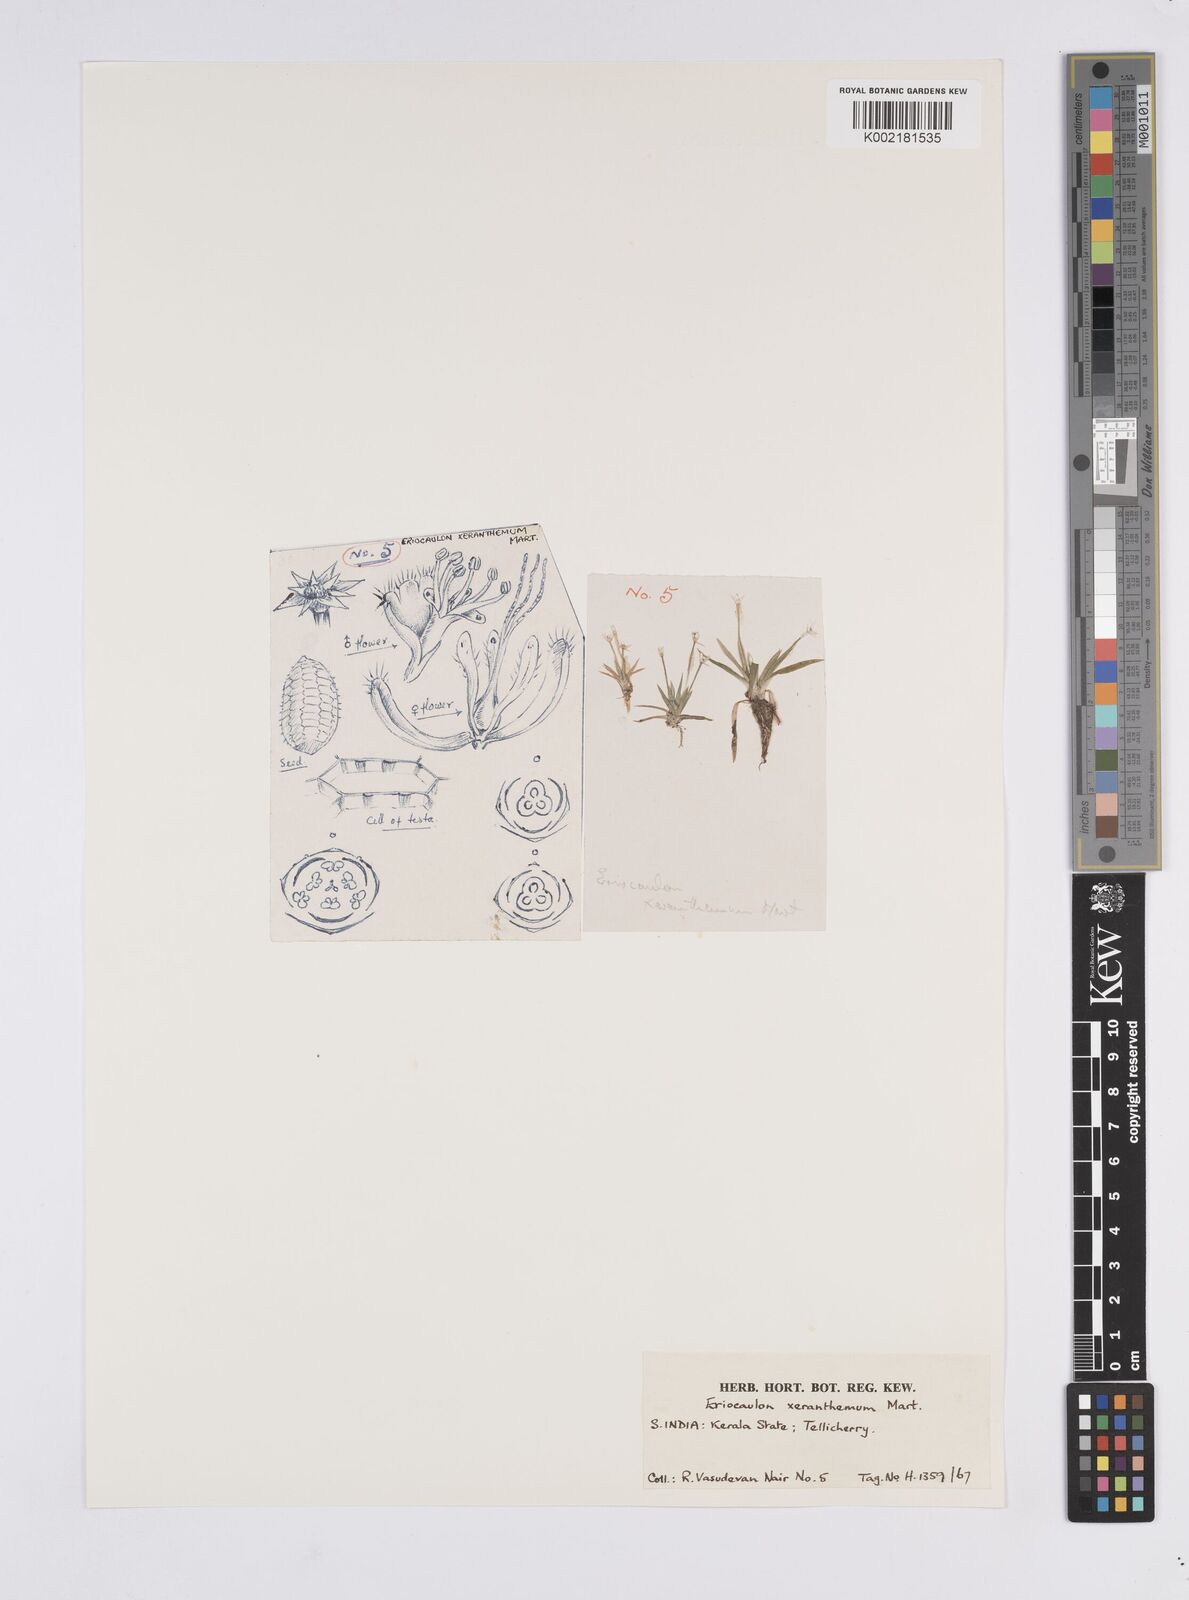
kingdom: Plantae
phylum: Tracheophyta
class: Liliopsida
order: Poales
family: Eriocaulaceae
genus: Eriocaulon
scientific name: Eriocaulon xeranthemum
